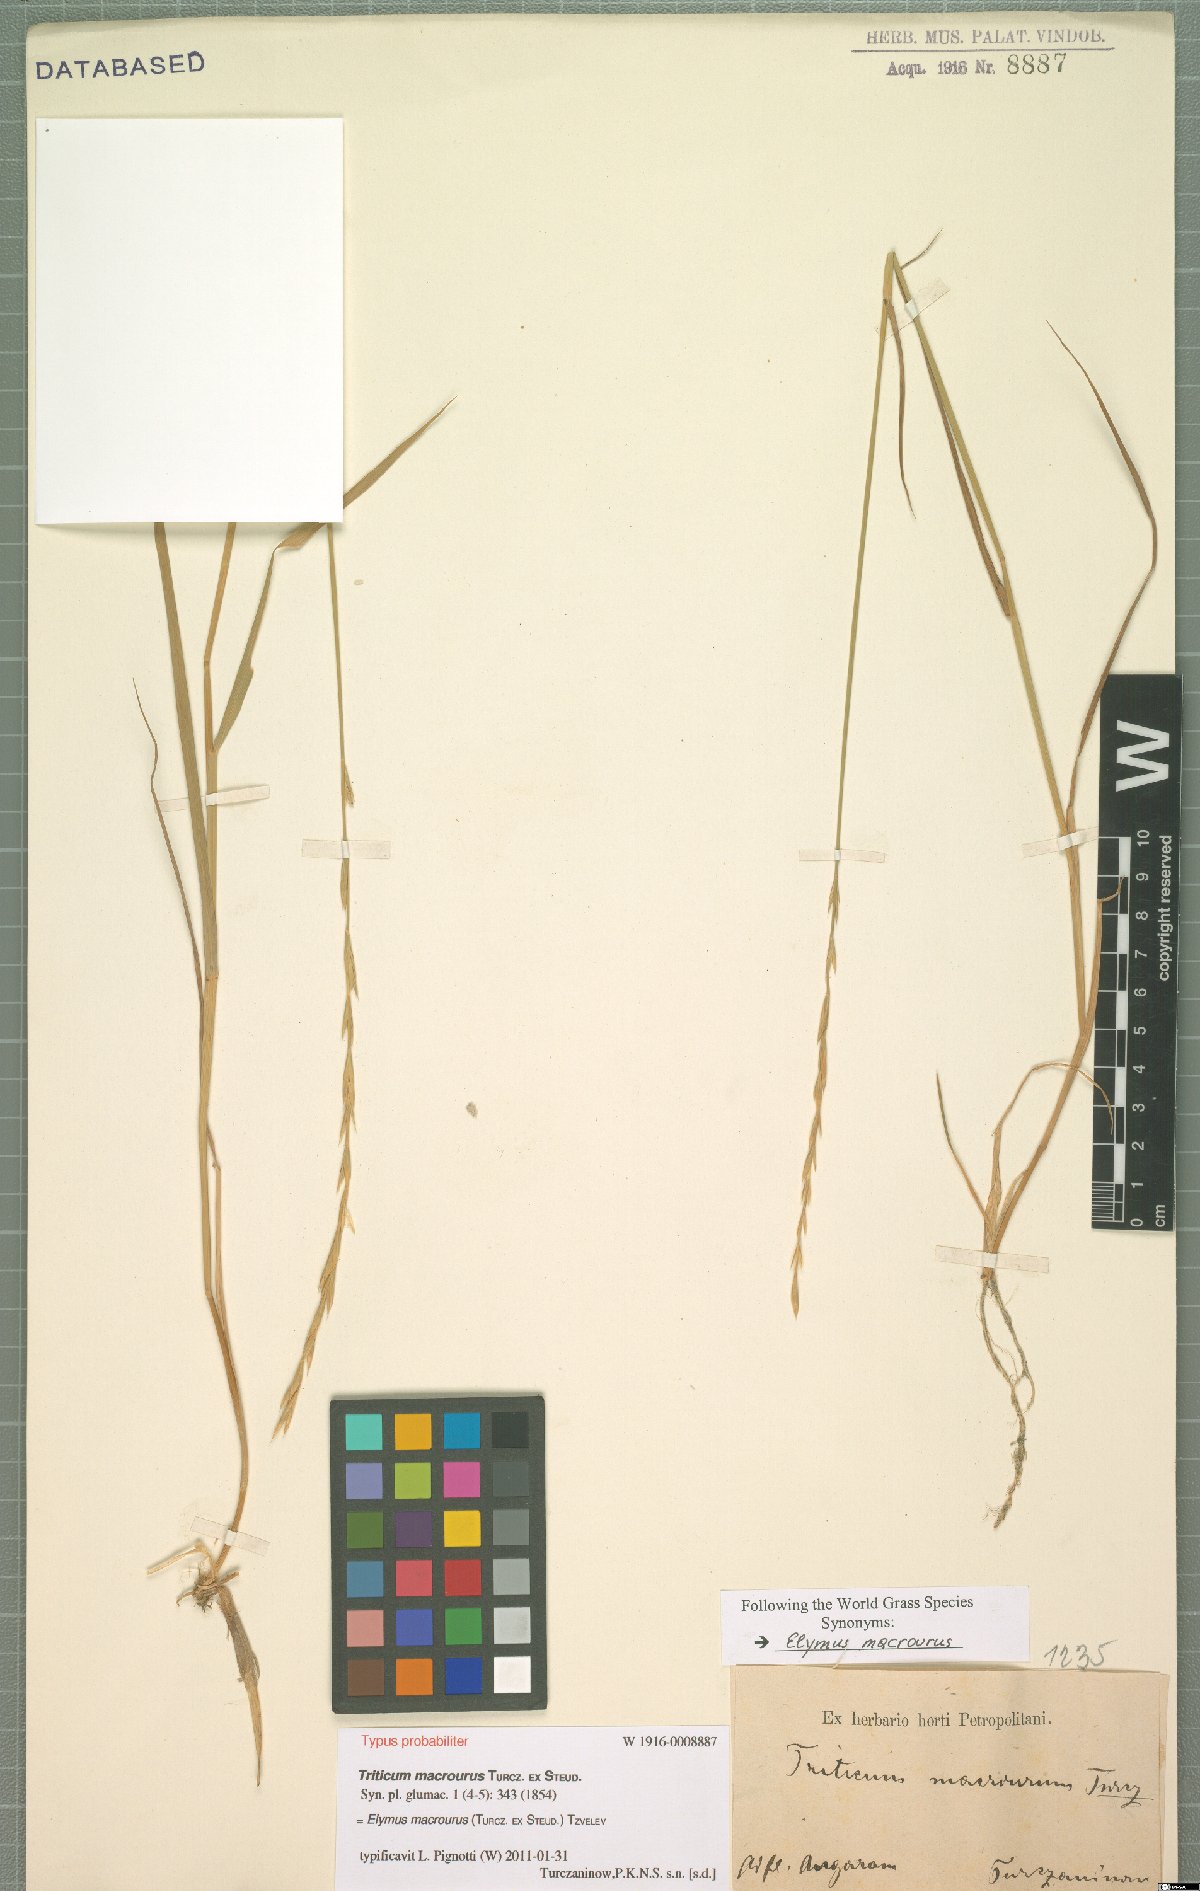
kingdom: Plantae
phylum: Tracheophyta
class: Liliopsida
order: Poales
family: Poaceae
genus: Elymus
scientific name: Elymus macrourus
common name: Northern wheatgrass
